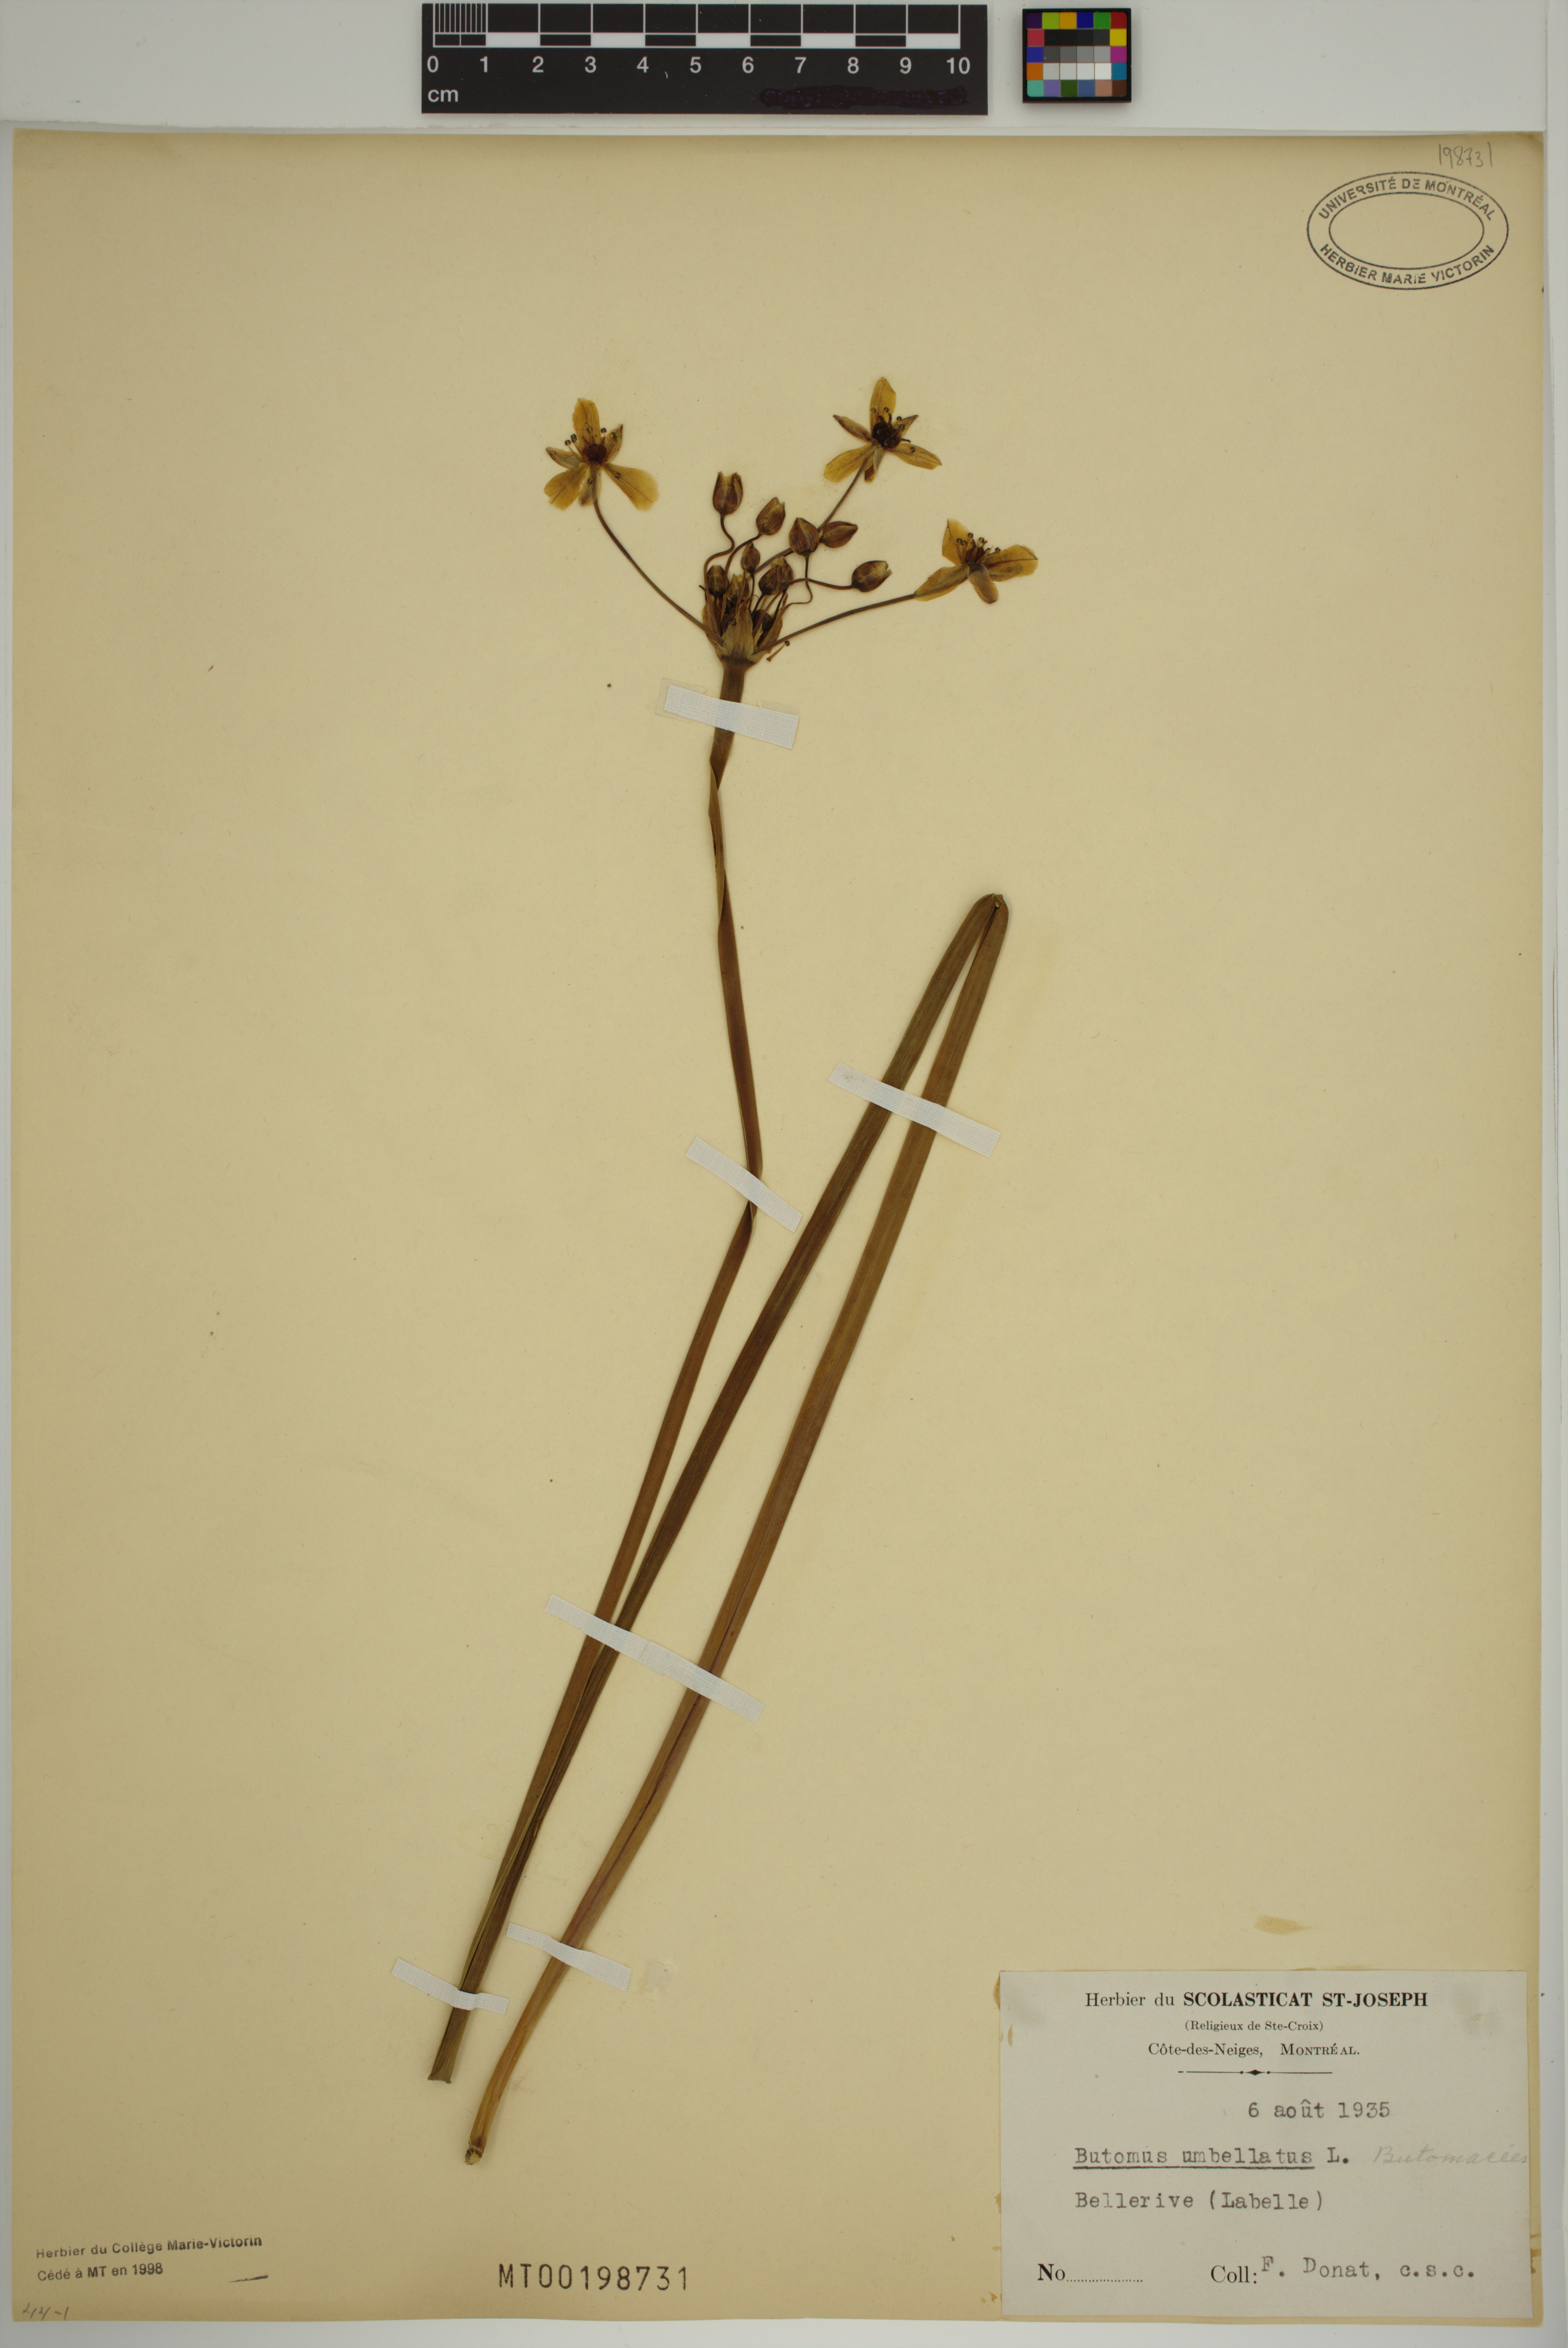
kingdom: Plantae
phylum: Tracheophyta
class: Liliopsida
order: Alismatales
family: Butomaceae
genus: Butomus
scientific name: Butomus umbellatus
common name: Flowering-rush
